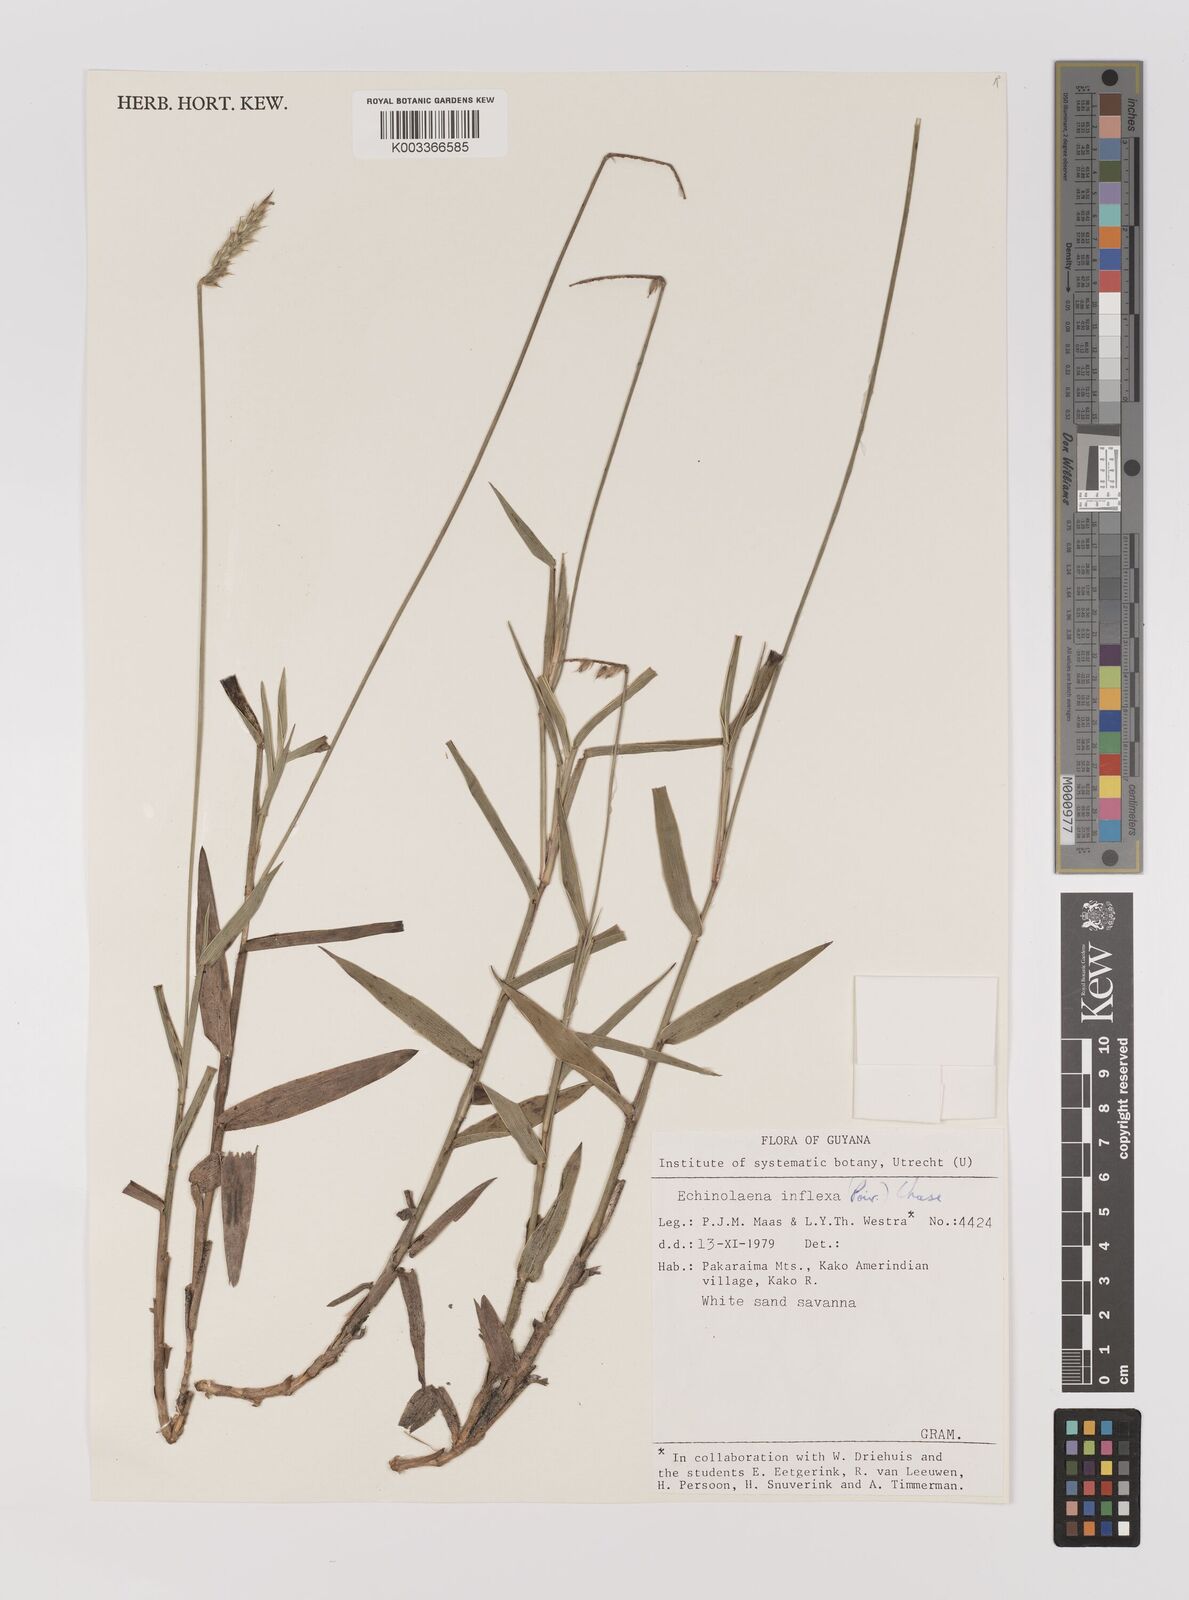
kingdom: Plantae
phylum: Tracheophyta
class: Liliopsida
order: Poales
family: Poaceae
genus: Echinolaena
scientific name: Echinolaena inflexa
